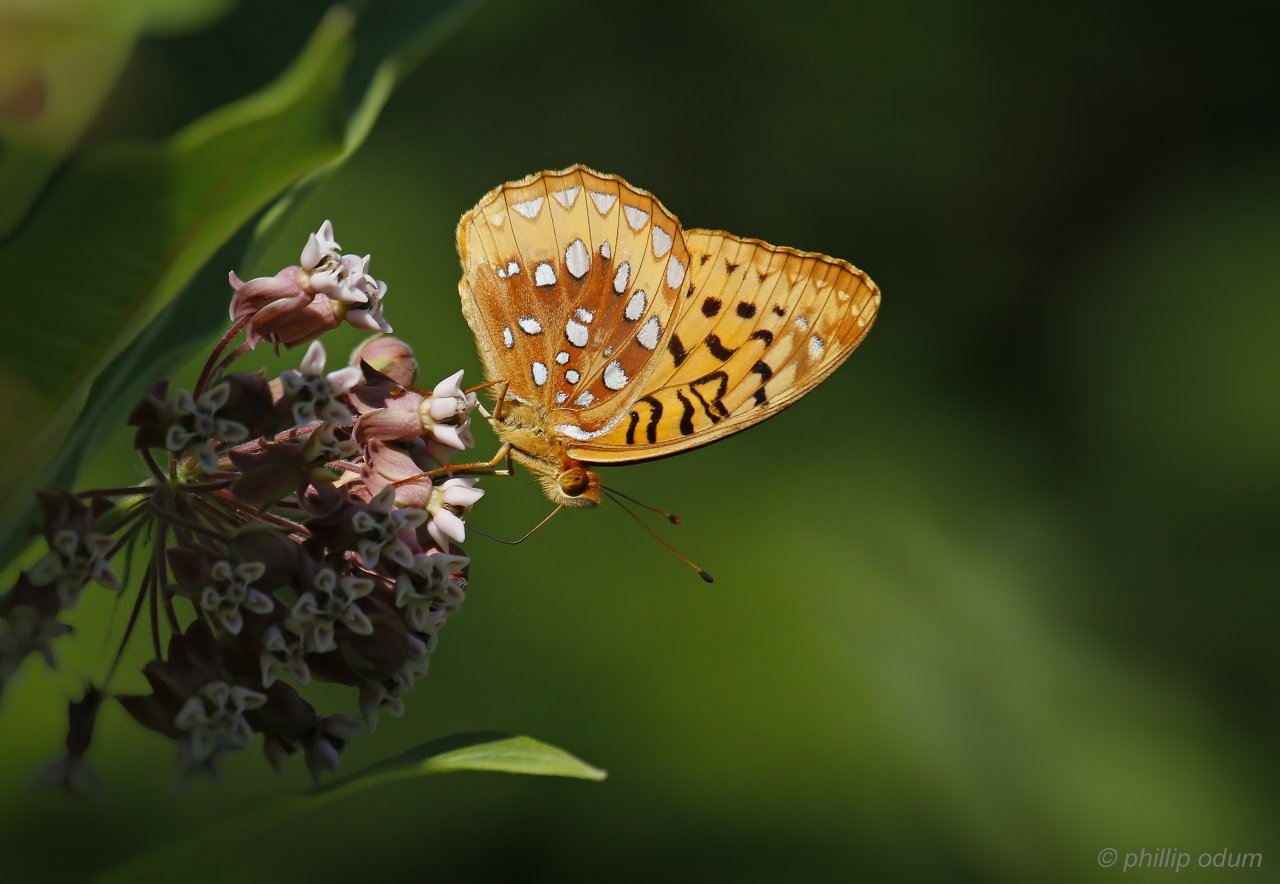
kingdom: Animalia
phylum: Arthropoda
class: Insecta
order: Lepidoptera
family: Nymphalidae
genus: Speyeria
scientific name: Speyeria cybele
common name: Great Spangled Fritillary
